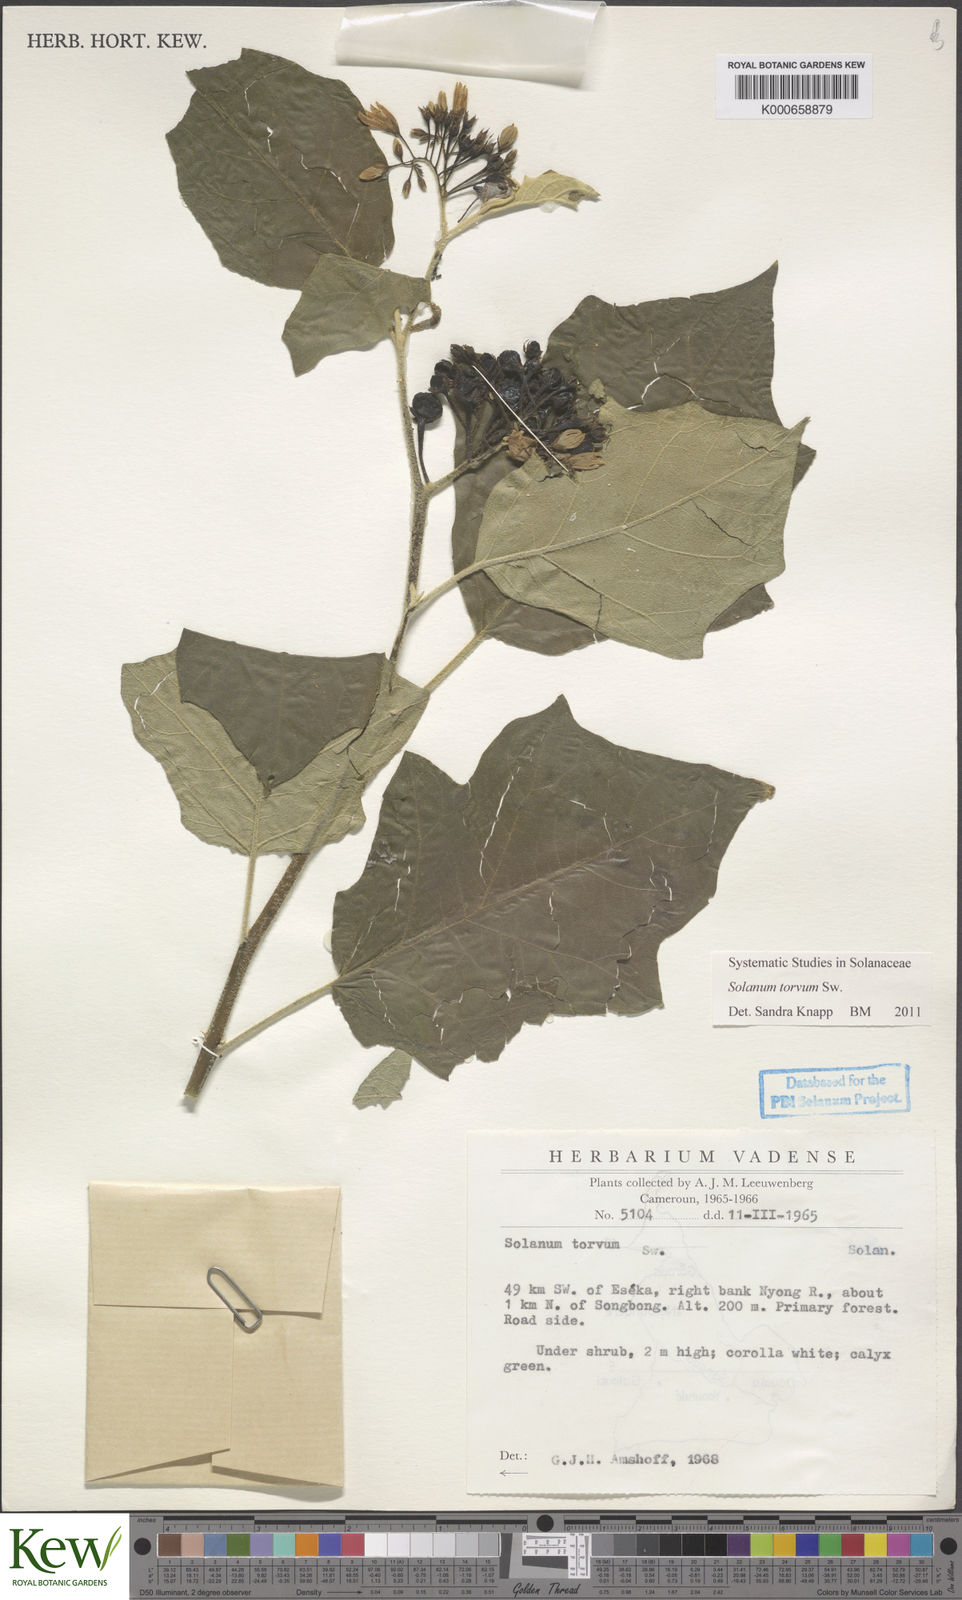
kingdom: Plantae
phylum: Tracheophyta
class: Magnoliopsida
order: Solanales
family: Solanaceae
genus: Solanum
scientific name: Solanum torvum
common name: Turkey berry
